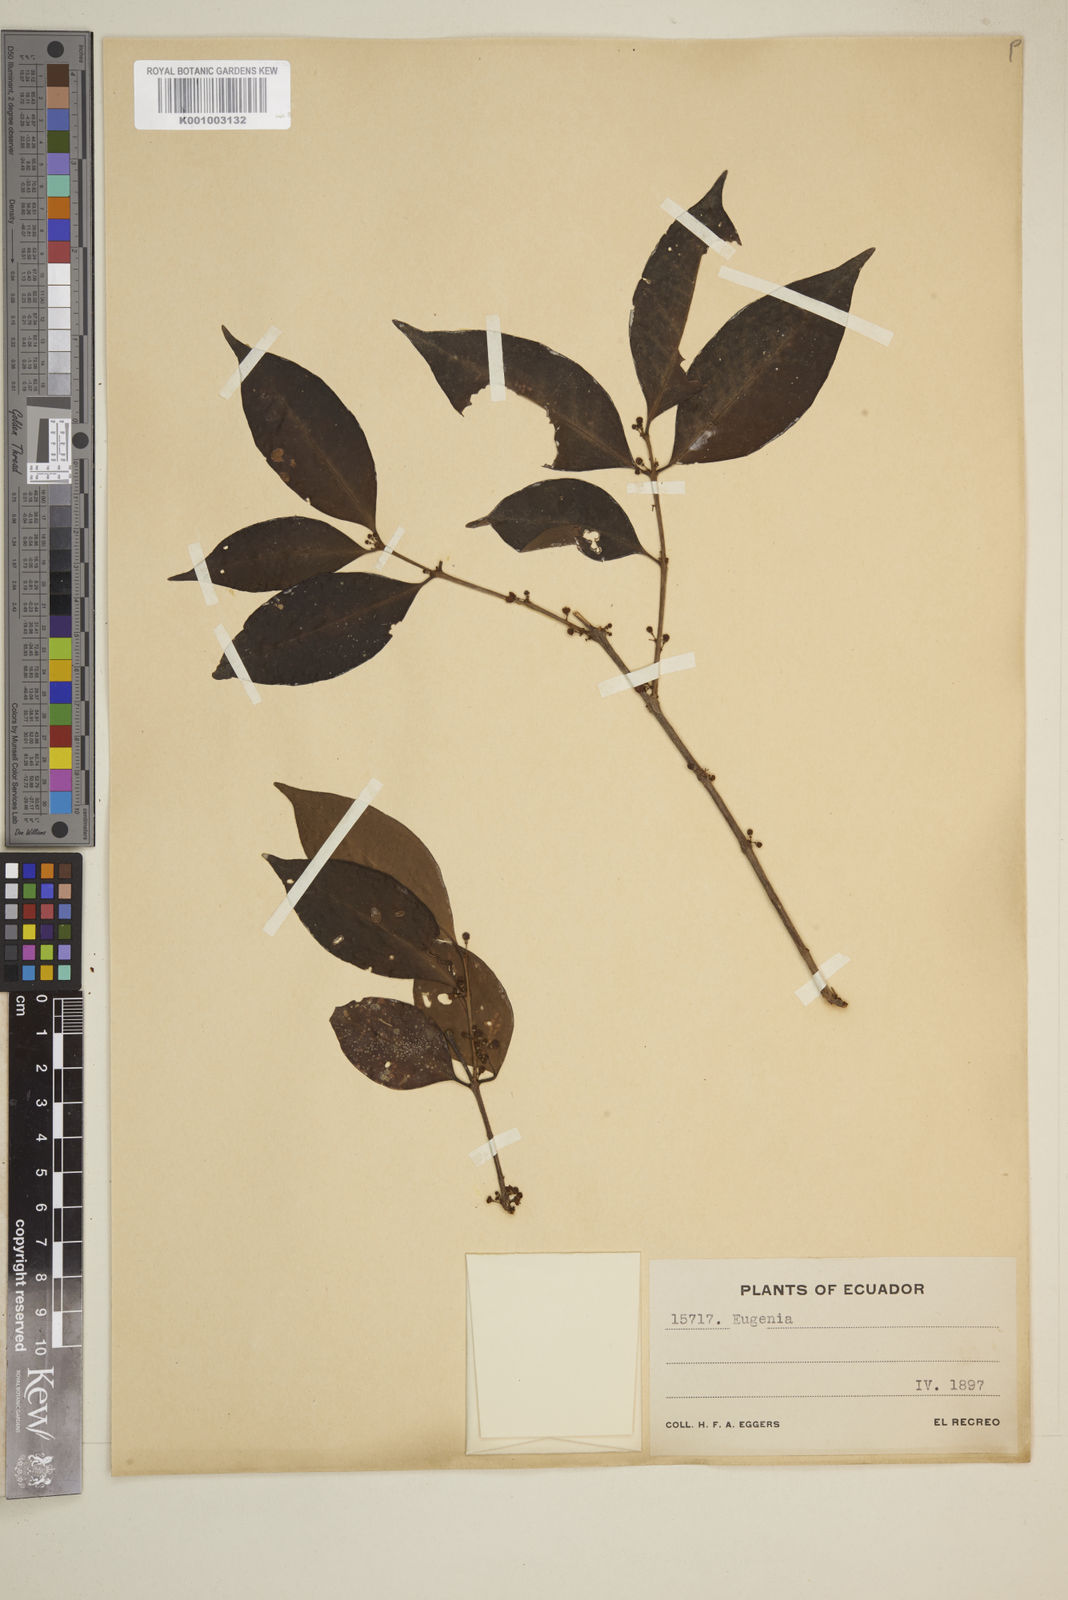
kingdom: Plantae
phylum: Tracheophyta
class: Magnoliopsida
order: Myrtales
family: Myrtaceae
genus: Eugenia
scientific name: Eugenia
